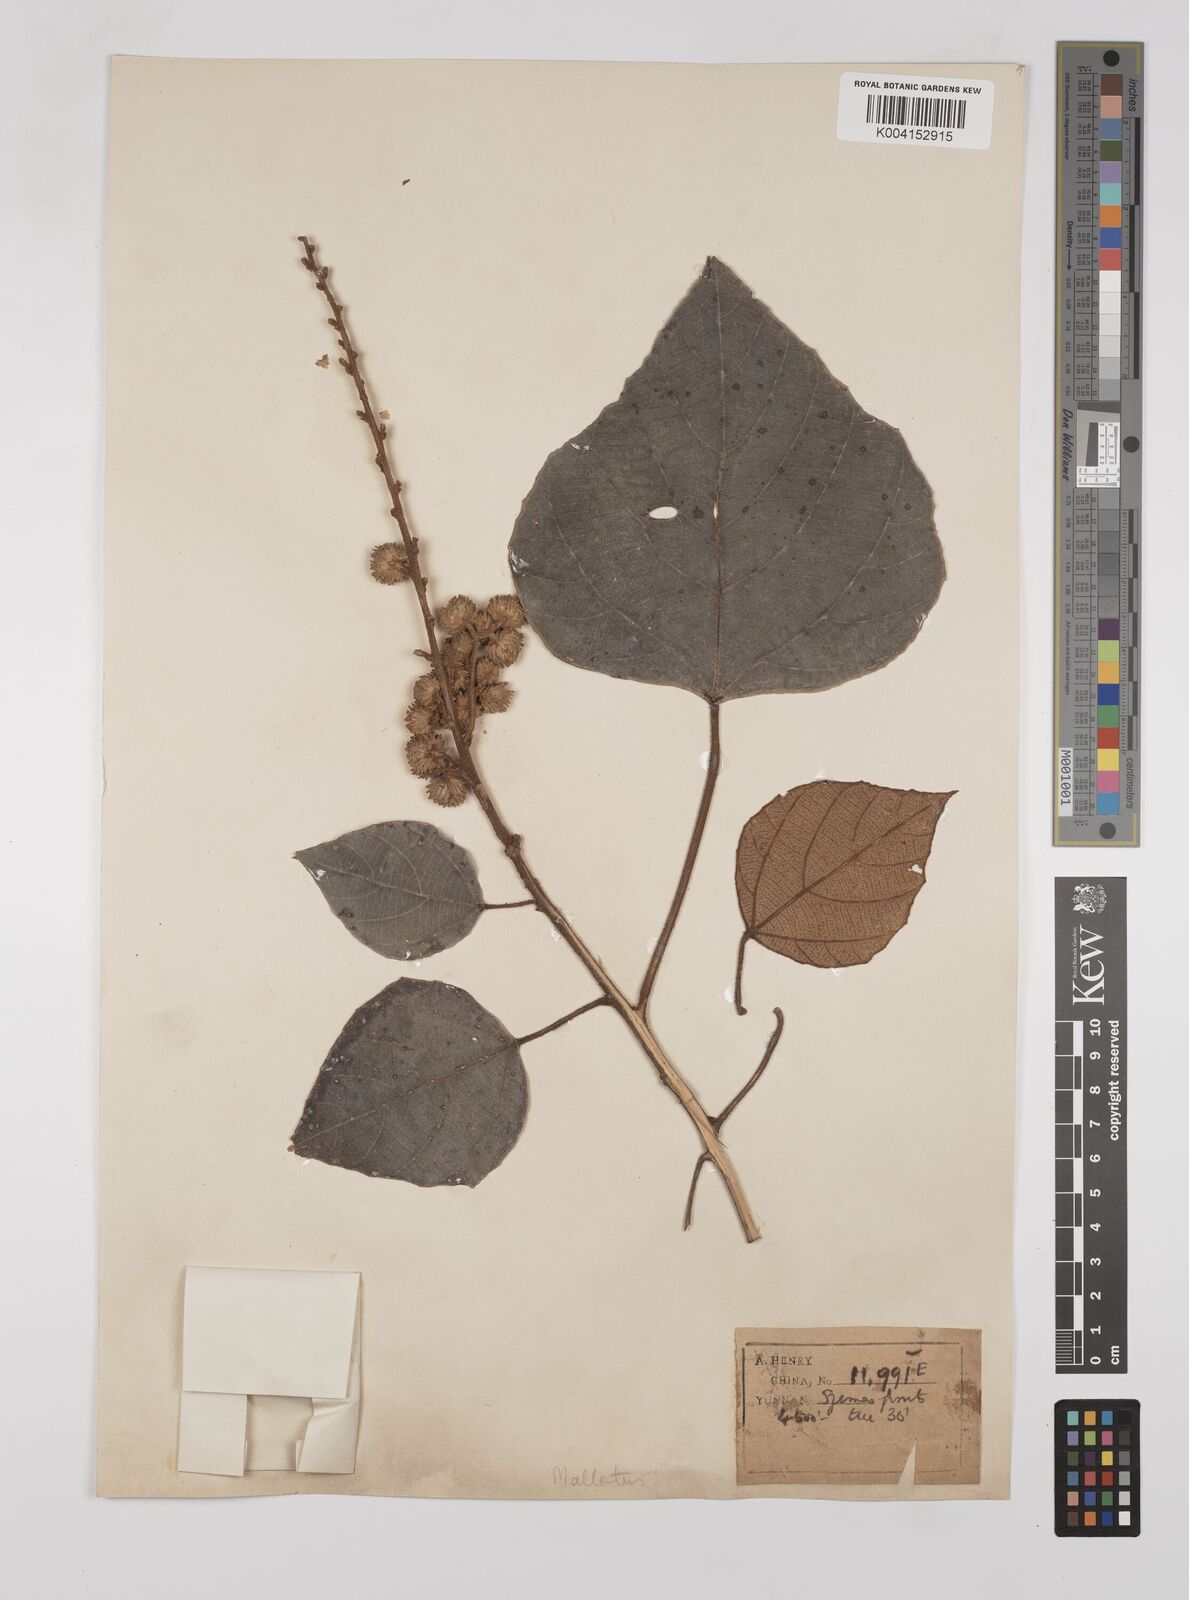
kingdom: Plantae
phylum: Tracheophyta
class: Magnoliopsida
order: Malpighiales
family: Euphorbiaceae
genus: Mallotus
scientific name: Mallotus
